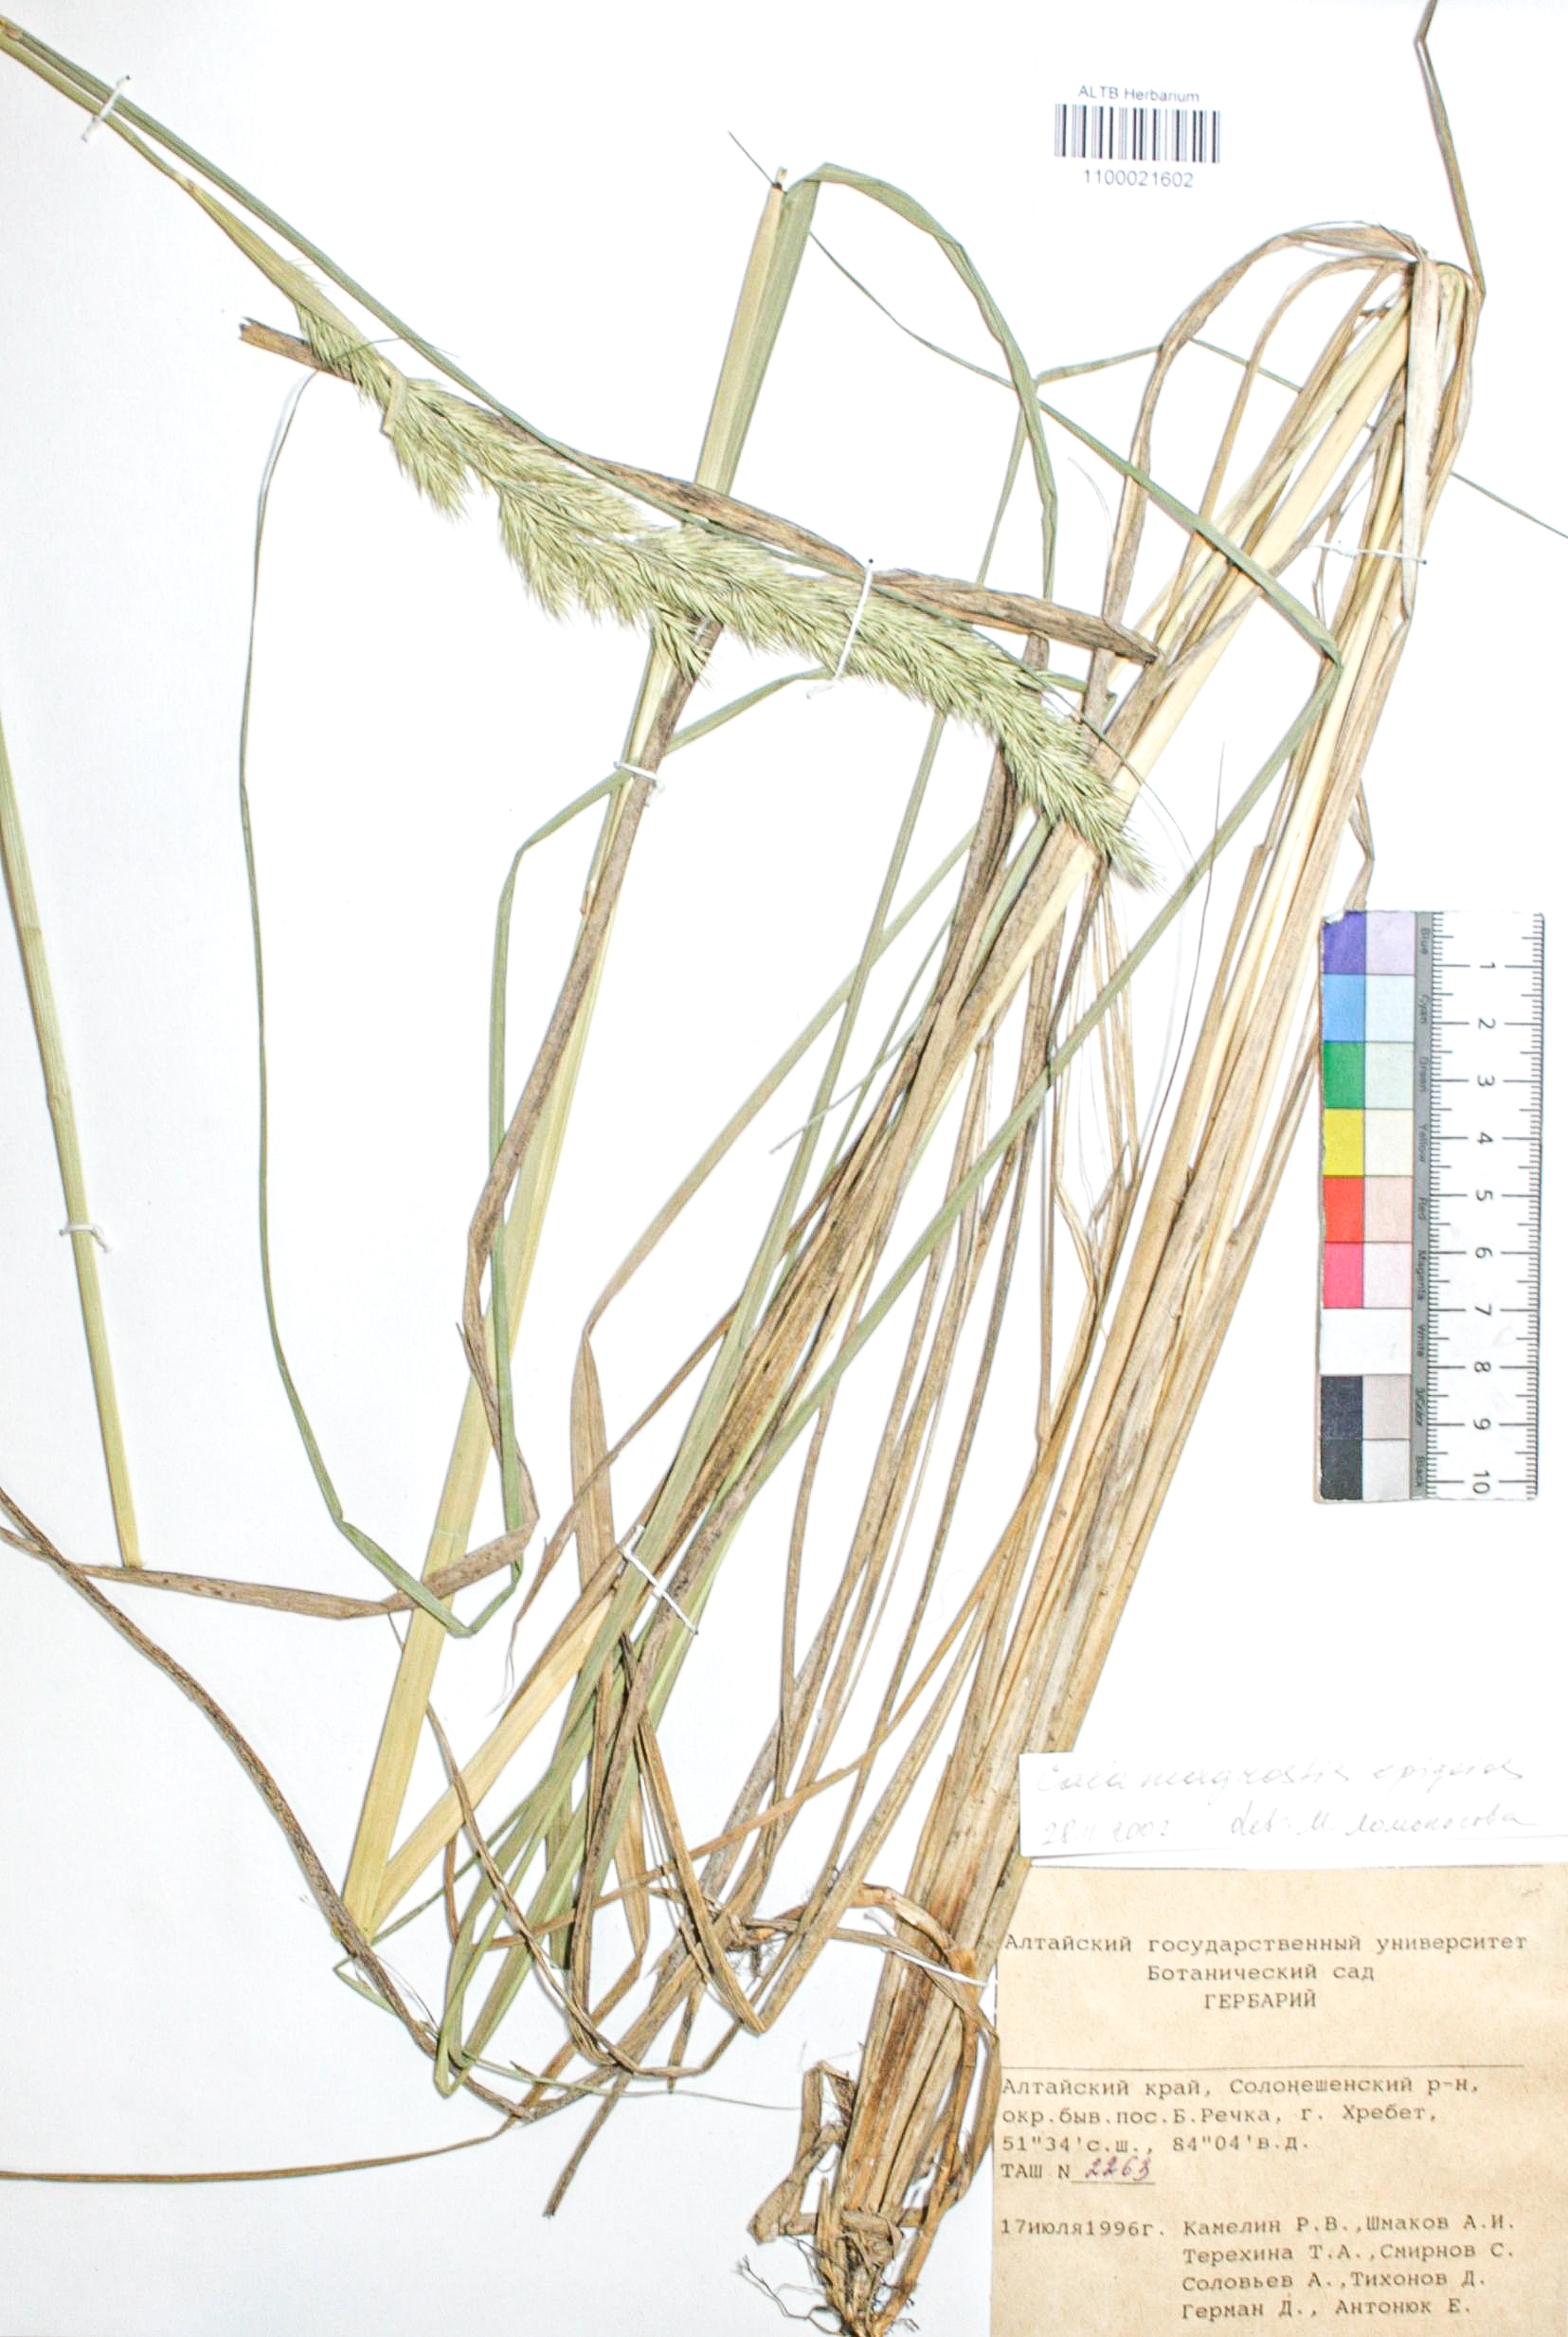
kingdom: Plantae
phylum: Tracheophyta
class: Liliopsida
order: Poales
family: Poaceae
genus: Calamagrostis
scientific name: Calamagrostis macrolepis
